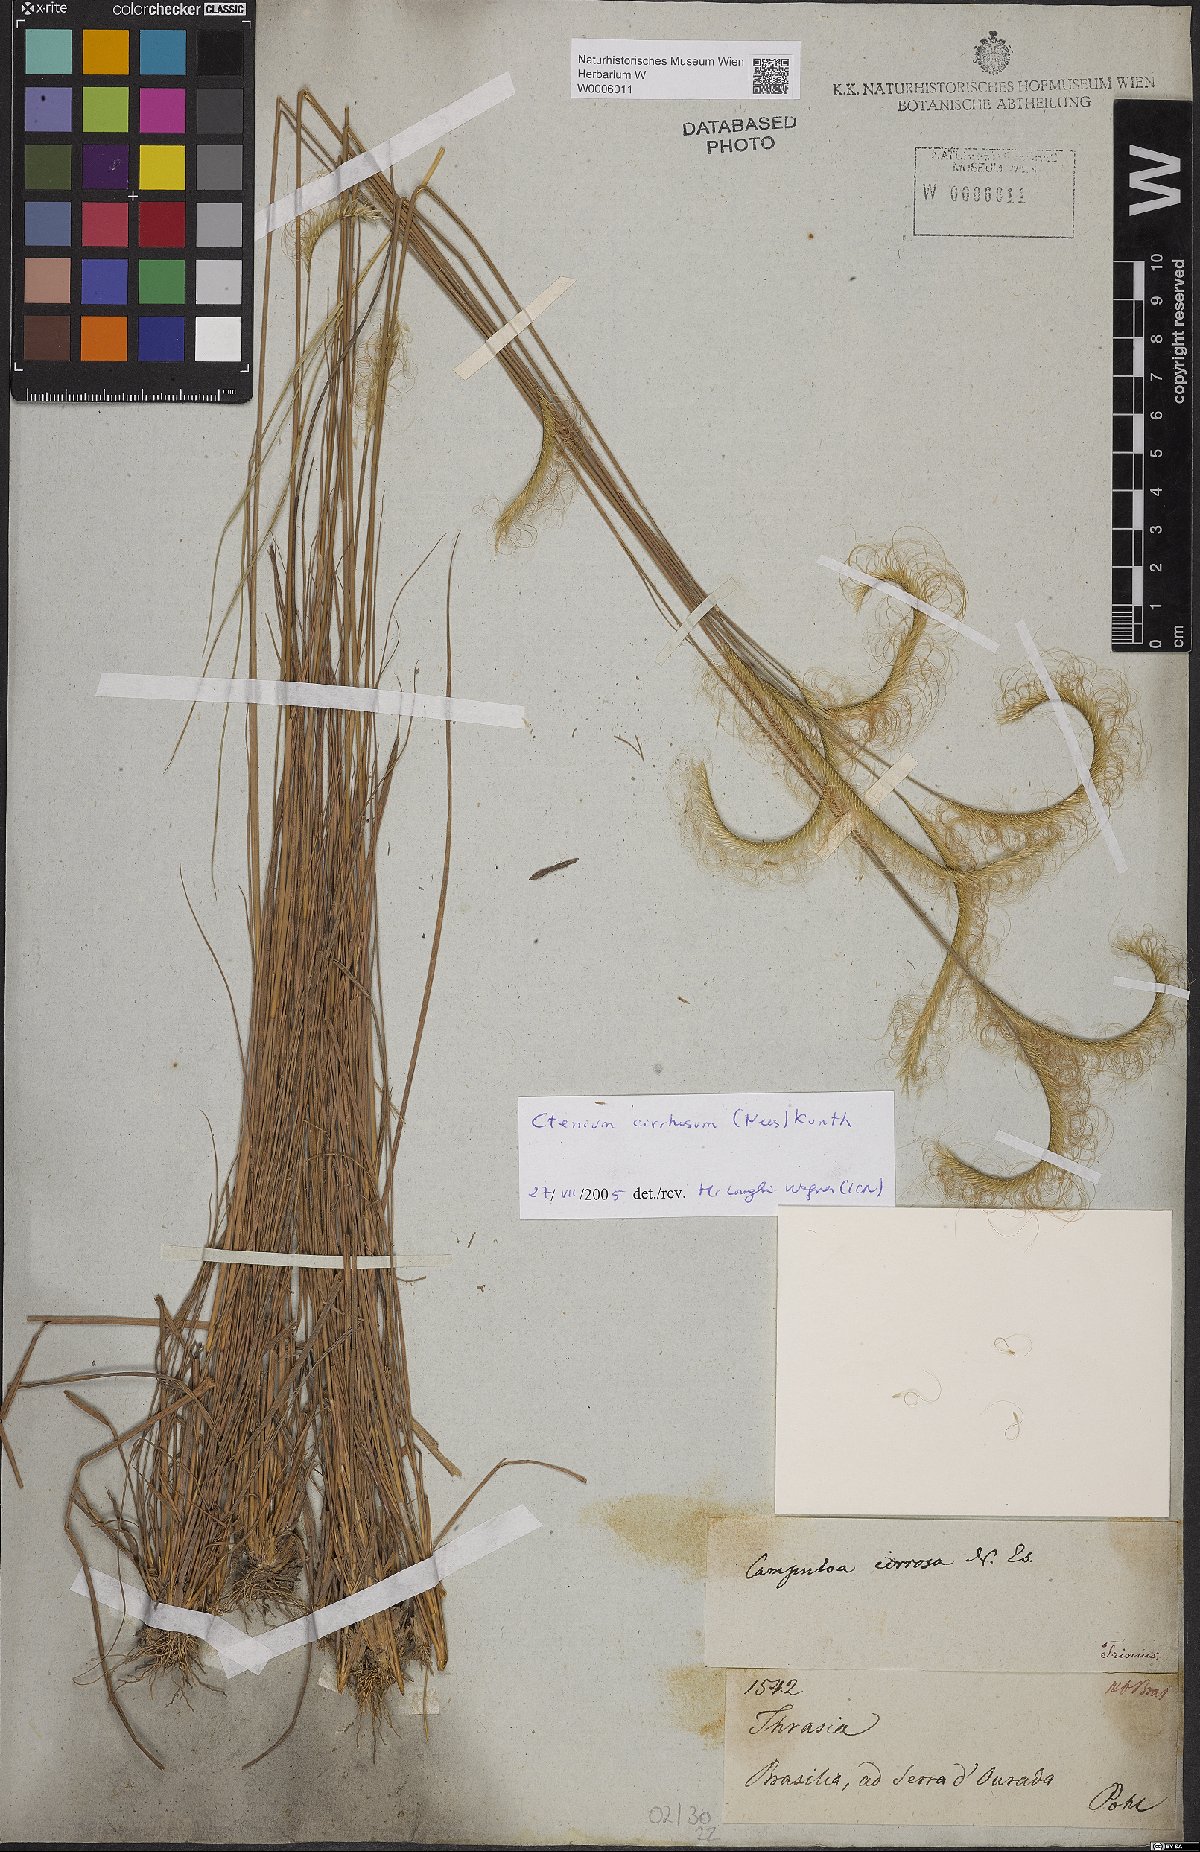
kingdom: Plantae
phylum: Tracheophyta
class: Liliopsida
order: Poales
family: Poaceae
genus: Ctenium
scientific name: Ctenium cirrhosum
